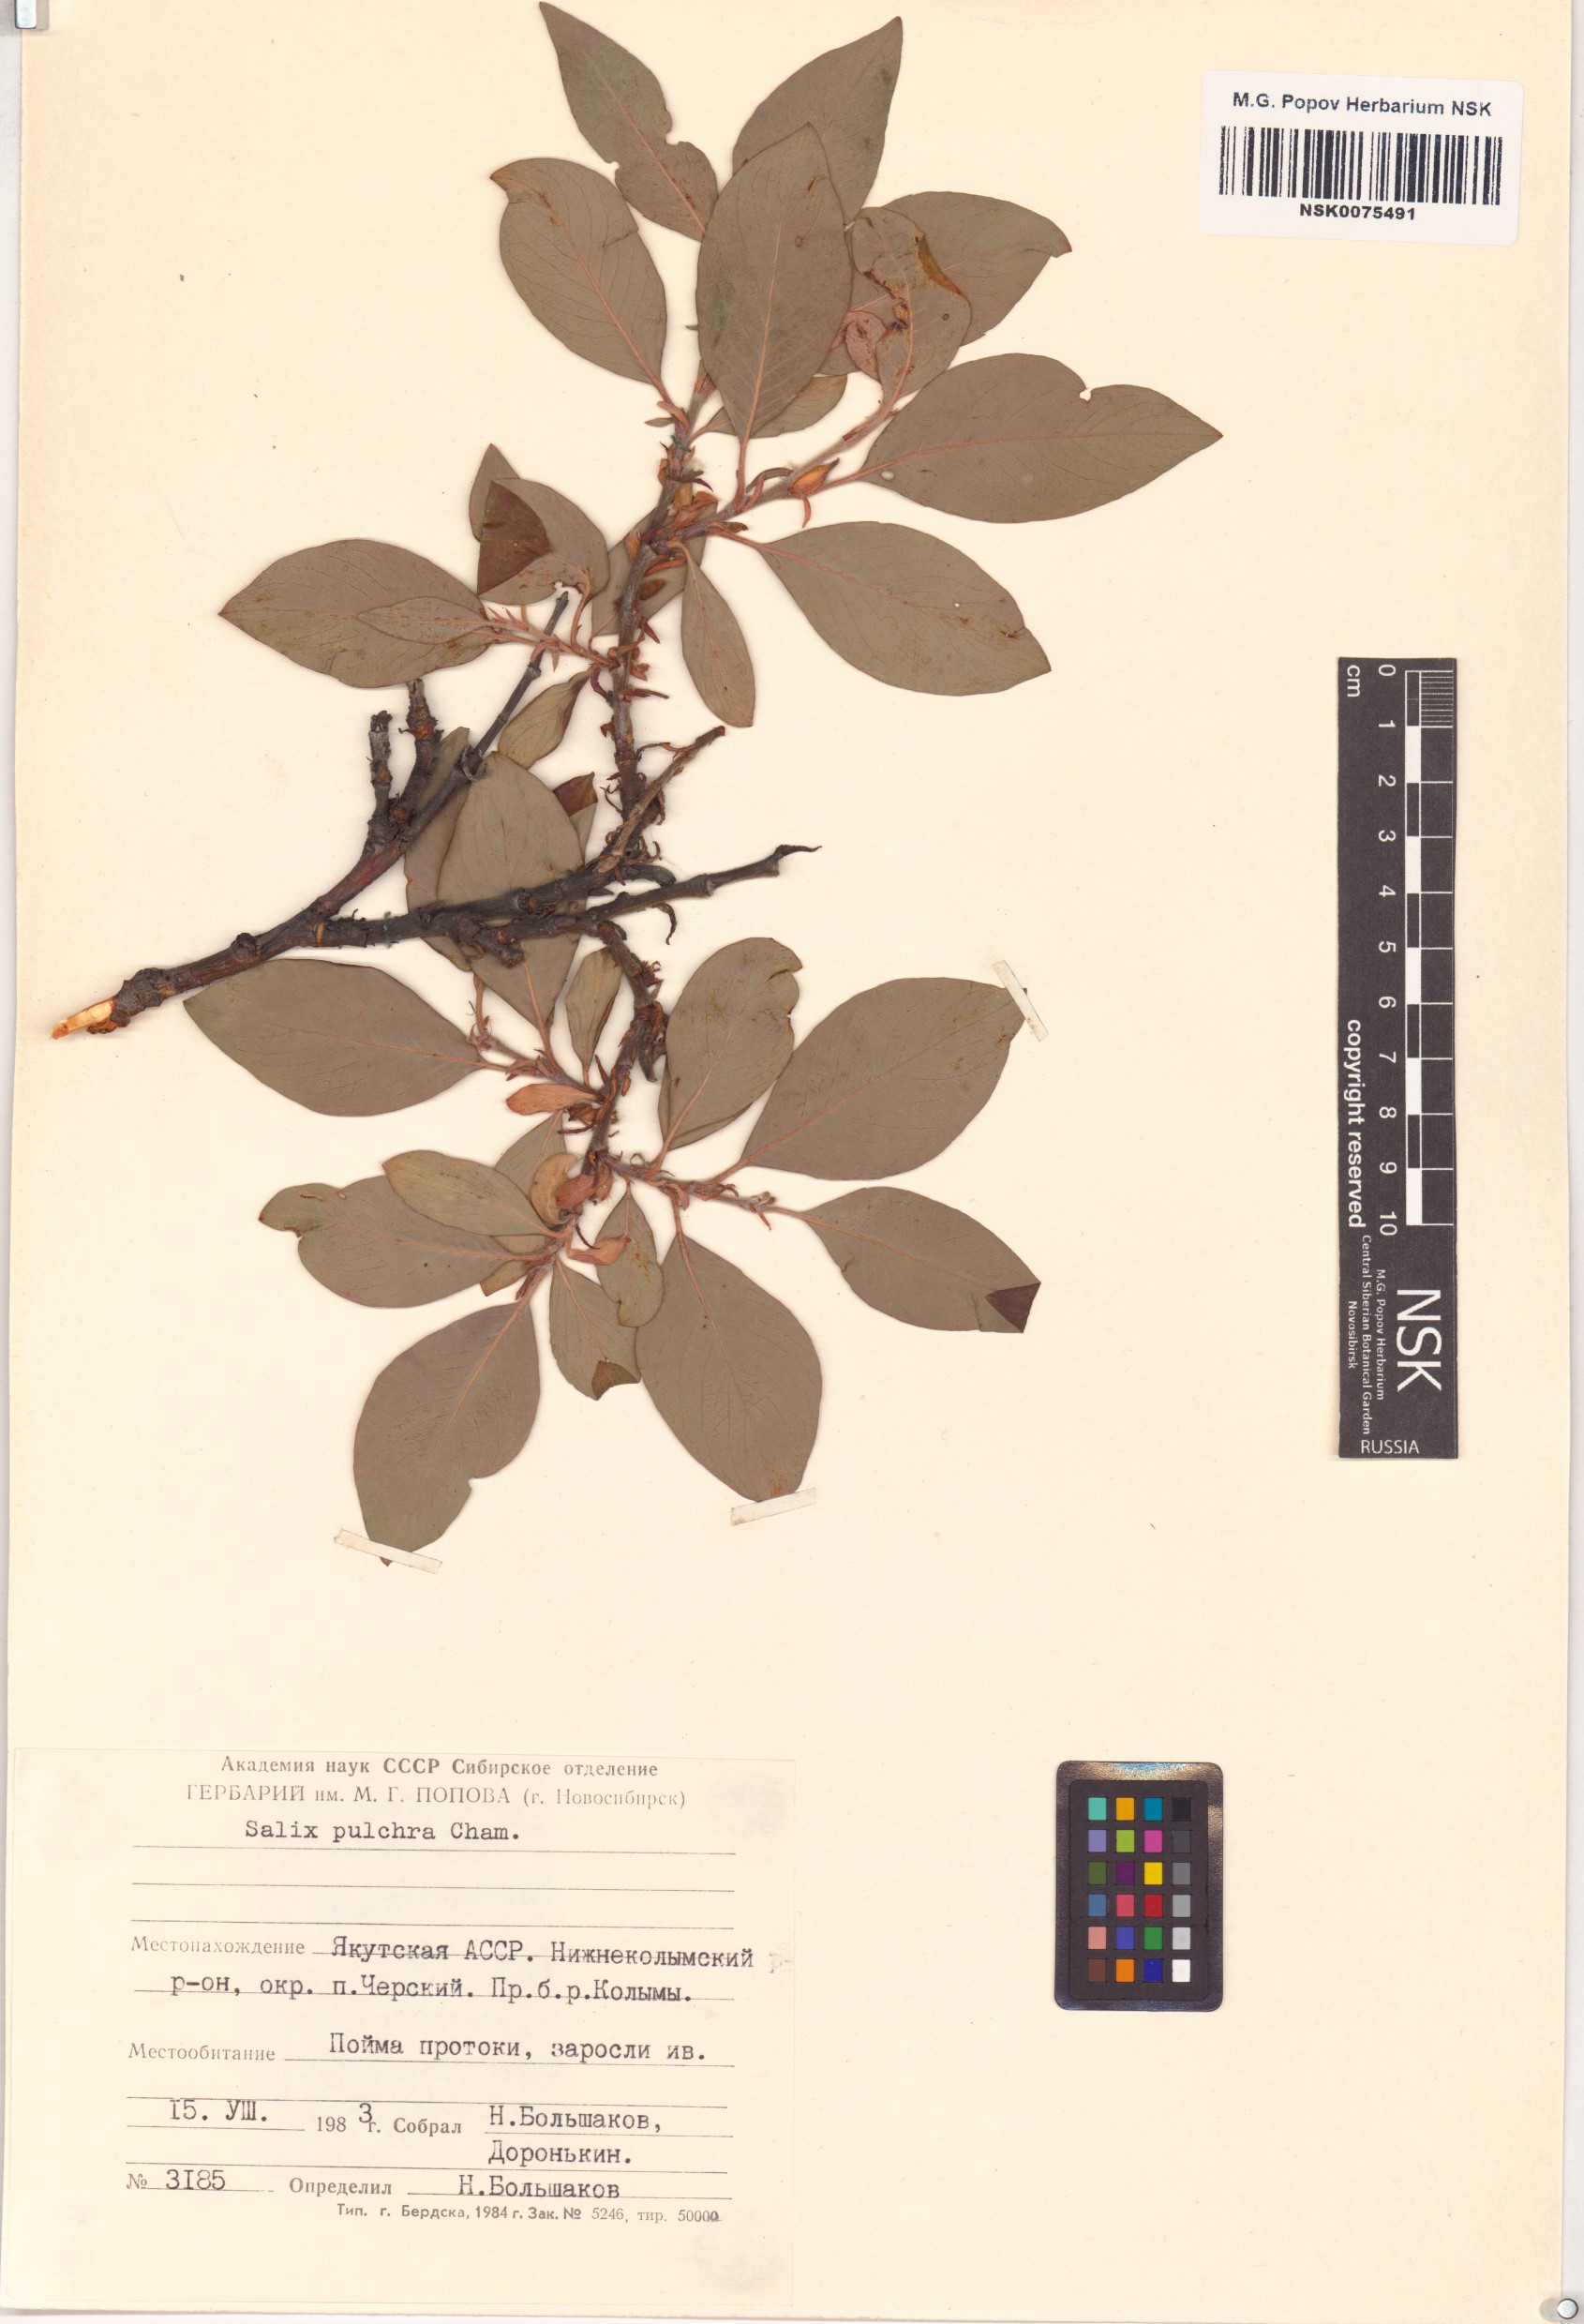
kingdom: Plantae
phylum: Tracheophyta
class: Magnoliopsida
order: Malpighiales
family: Salicaceae
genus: Salix
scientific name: Salix pulchra
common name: Diamond-leaved willow
